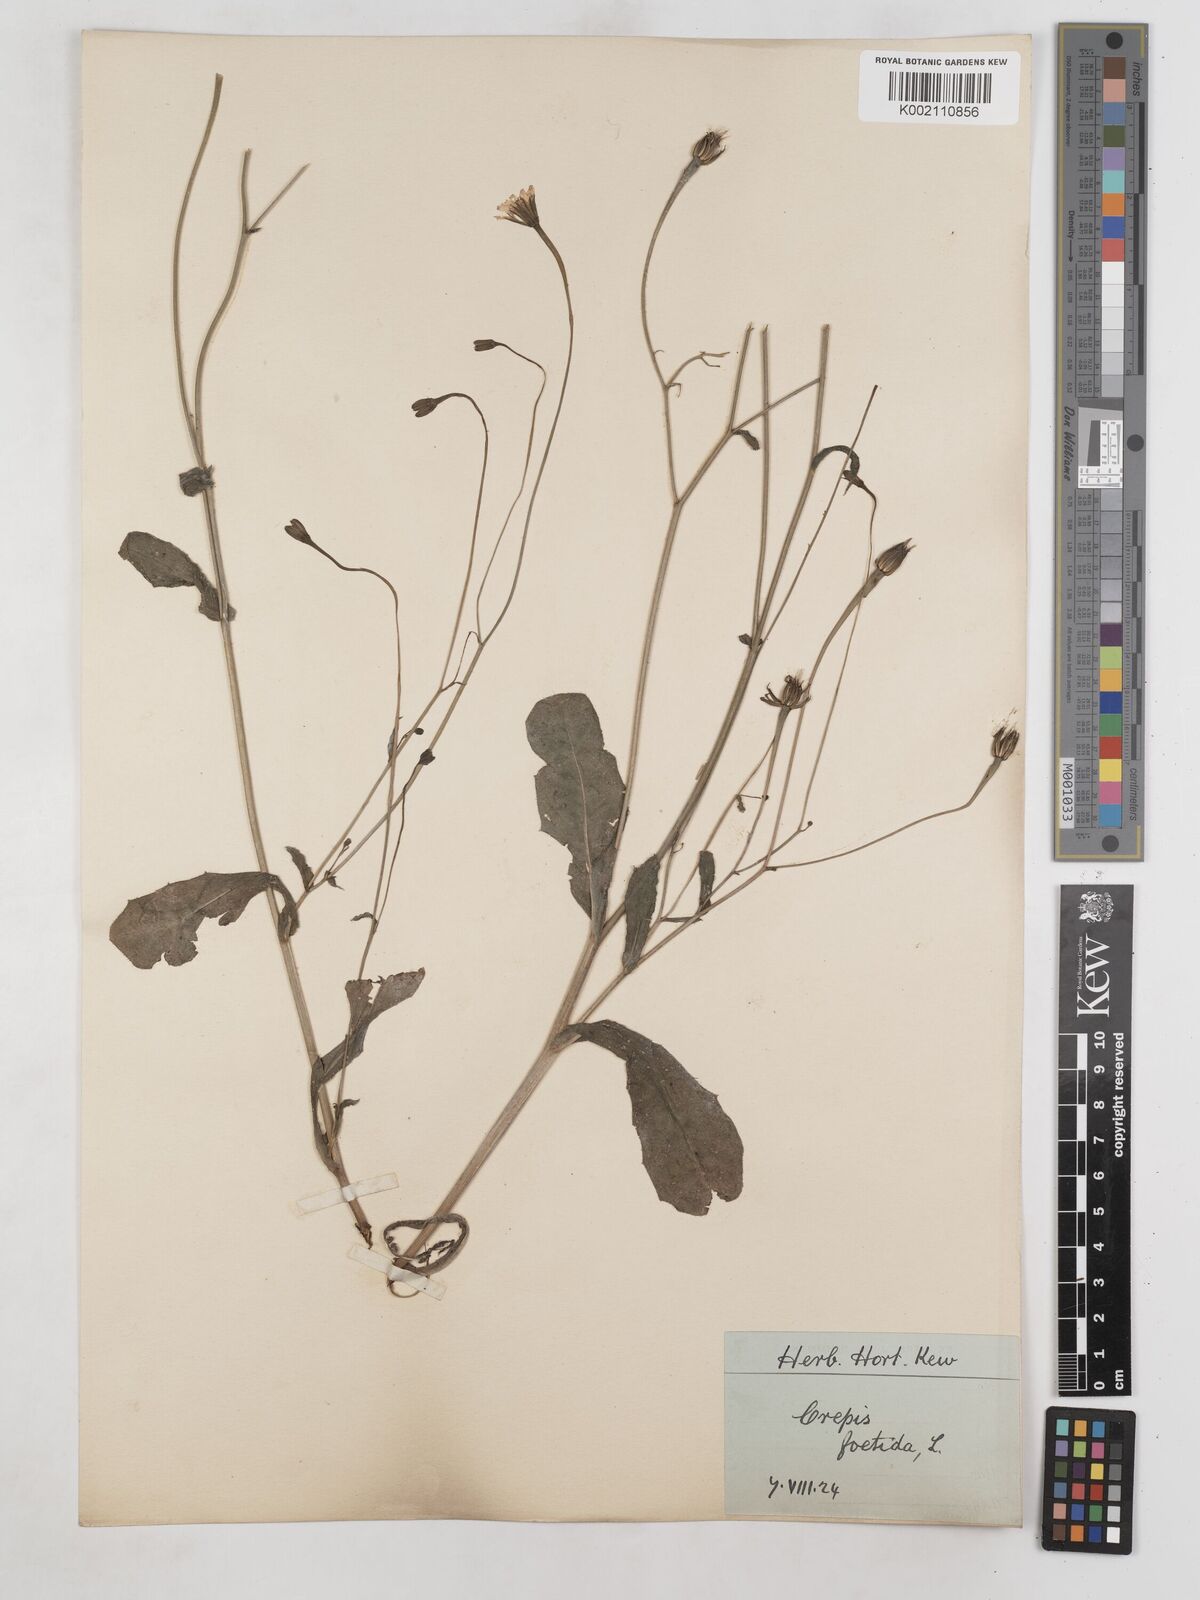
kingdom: Plantae
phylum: Tracheophyta
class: Magnoliopsida
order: Asterales
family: Asteraceae
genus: Crepis
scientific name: Crepis foetida
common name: Stinking hawk's-beard
